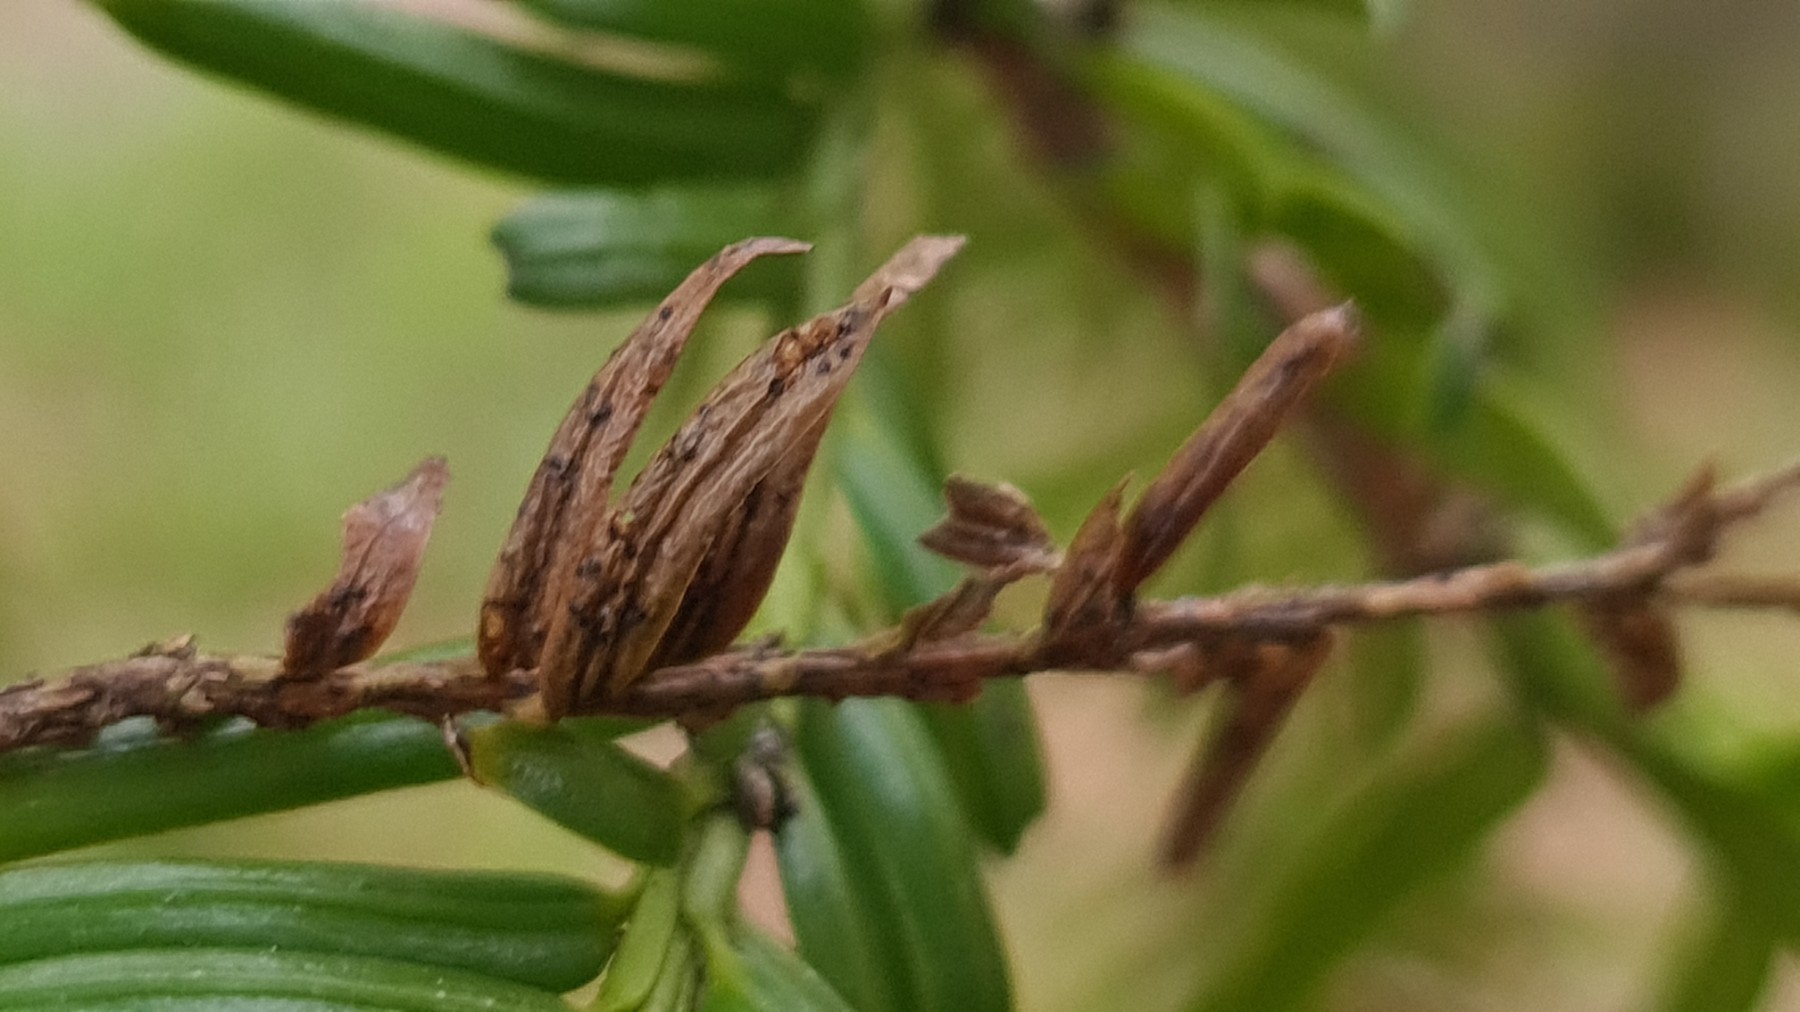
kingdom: Fungi
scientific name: Fungi
